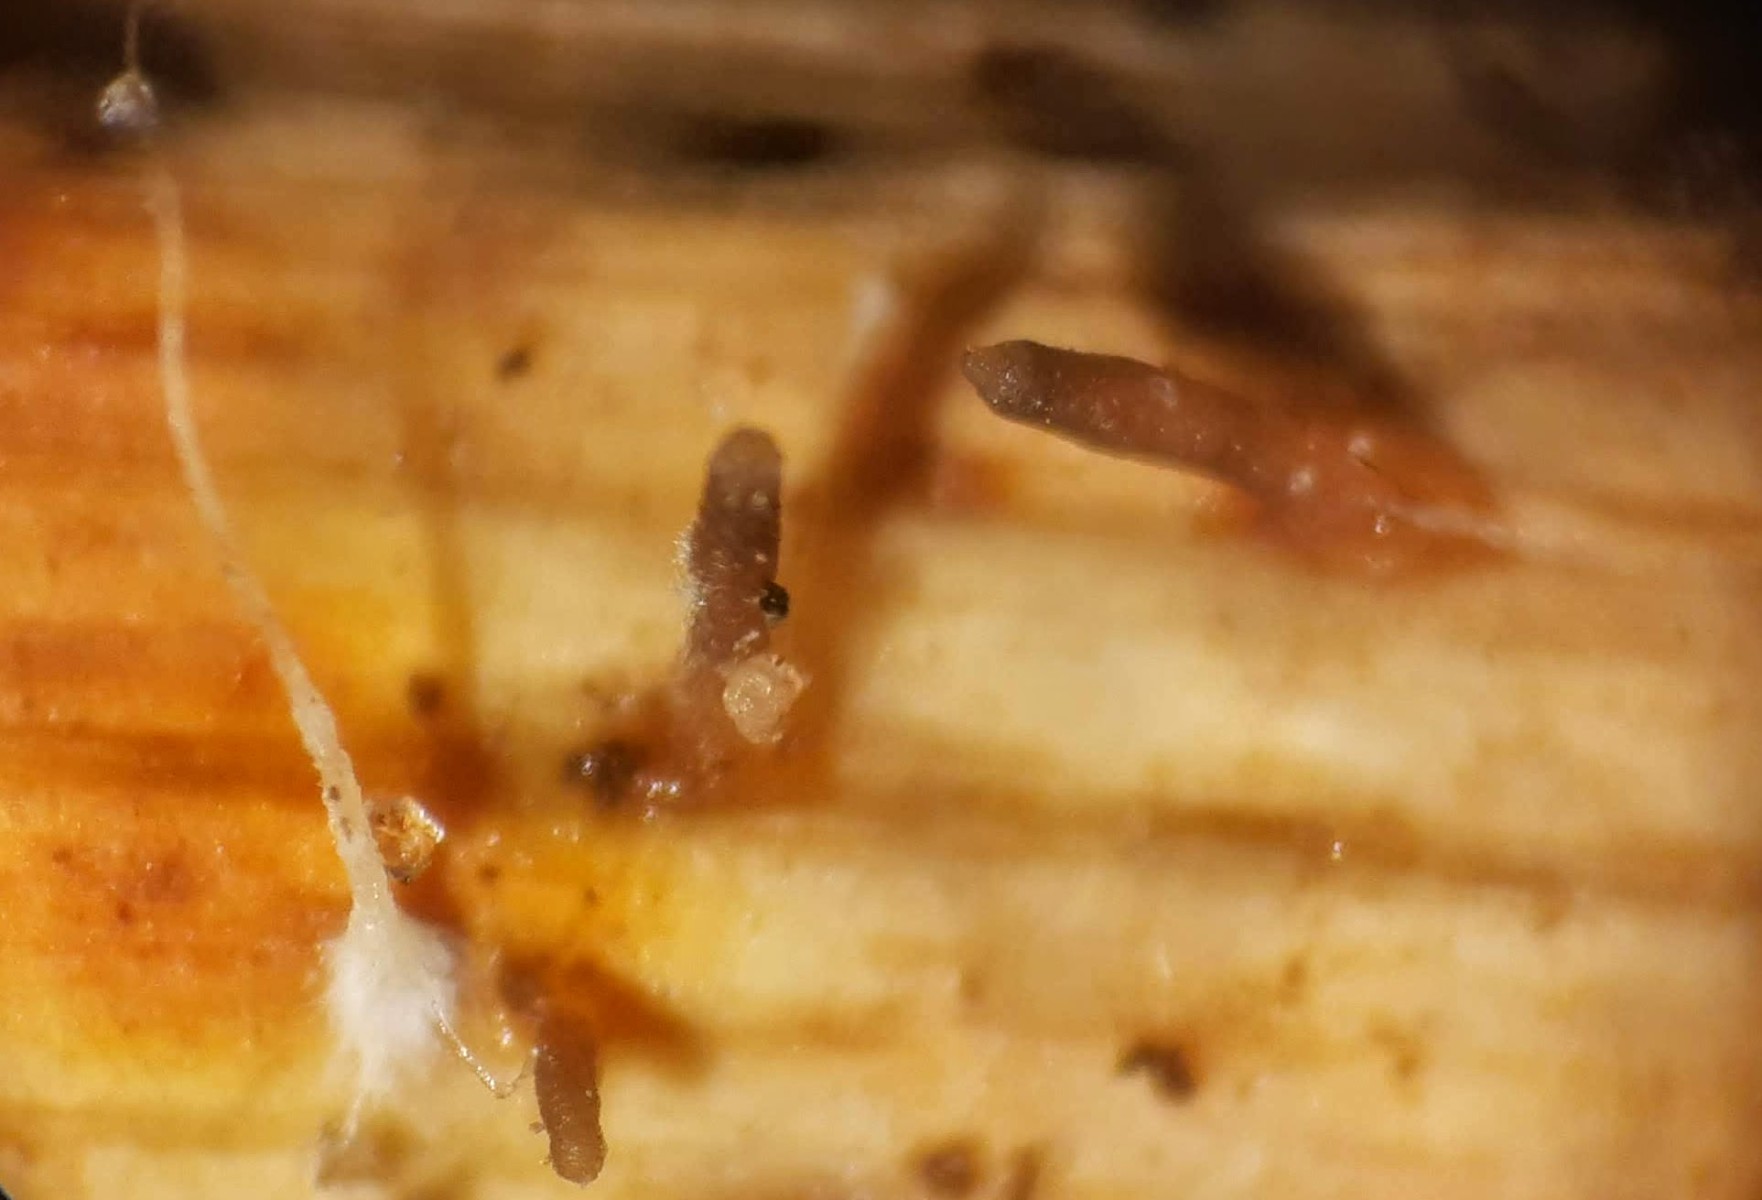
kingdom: Fungi
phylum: Ascomycota
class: Dothideomycetes
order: Acrospermales
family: Acrospermaceae
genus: Acrospermum
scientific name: Acrospermum compressum
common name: nælde-stængeltunge
